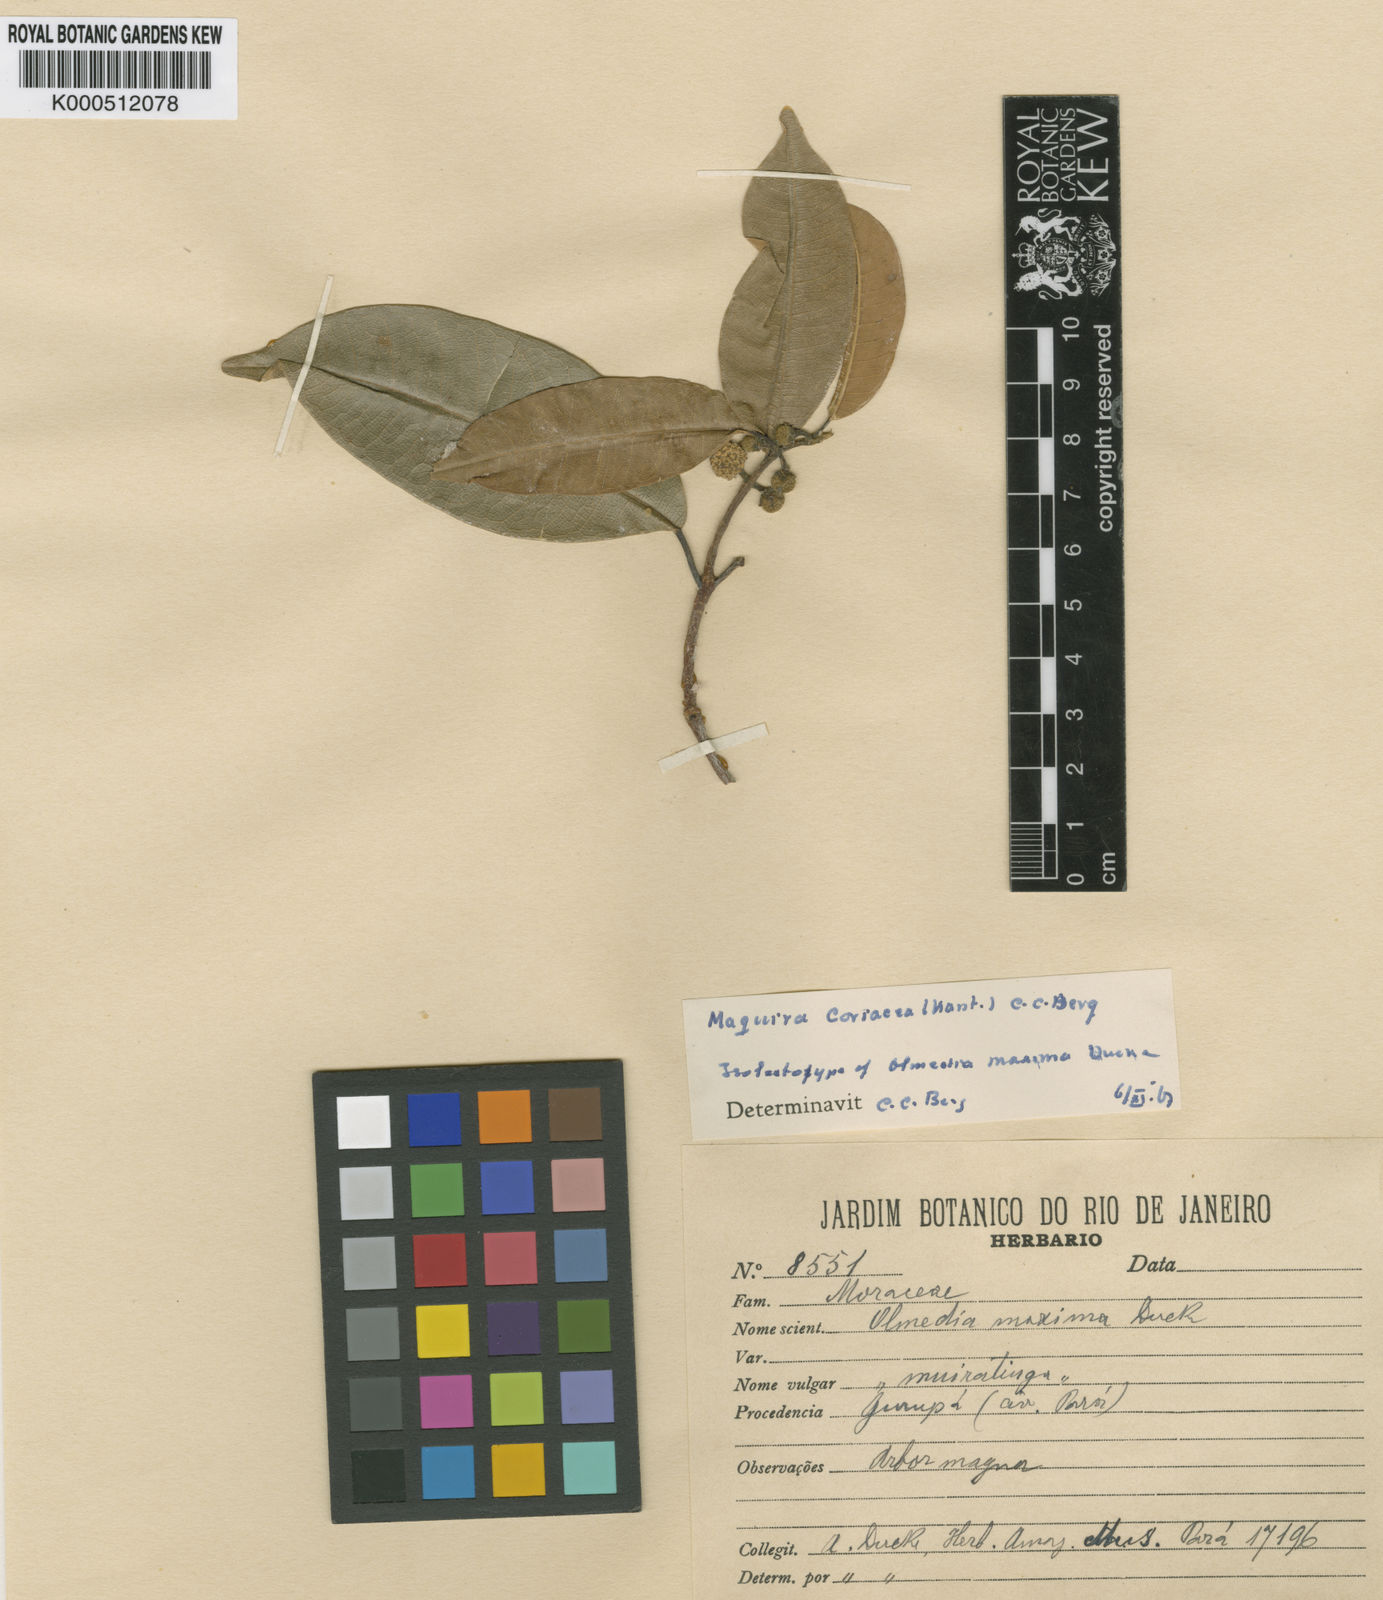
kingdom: Plantae
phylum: Tracheophyta
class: Magnoliopsida
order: Rosales
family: Moraceae
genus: Maquira
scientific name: Maquira coriacea
